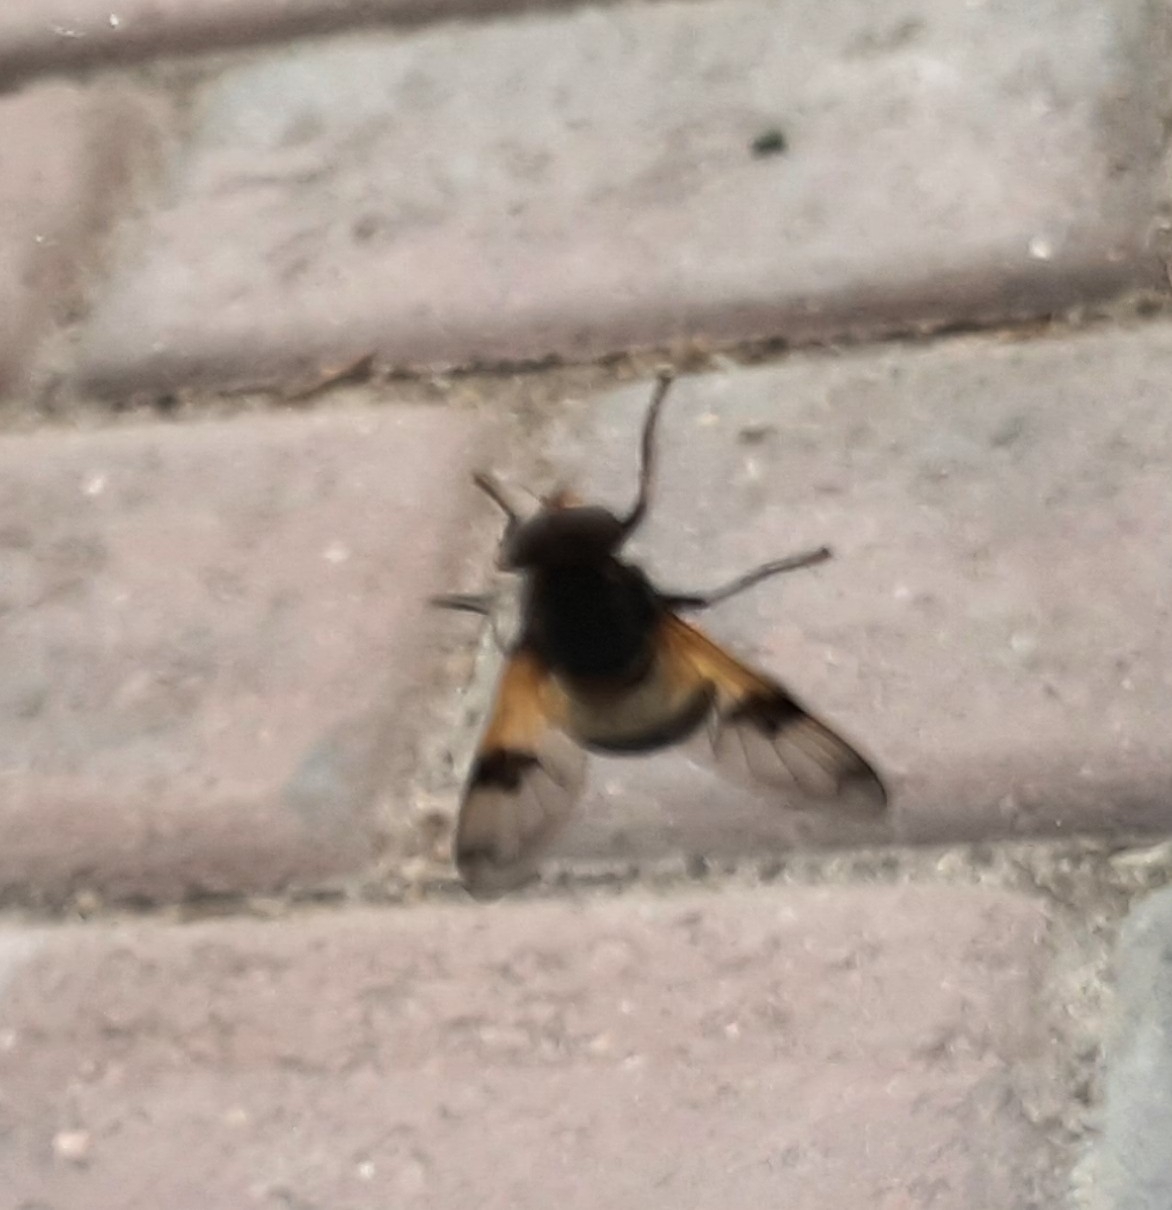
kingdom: Animalia
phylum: Arthropoda
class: Insecta
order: Diptera
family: Syrphidae
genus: Volucella
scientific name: Volucella pellucens
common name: Hvidbåndet humlesvirreflue
